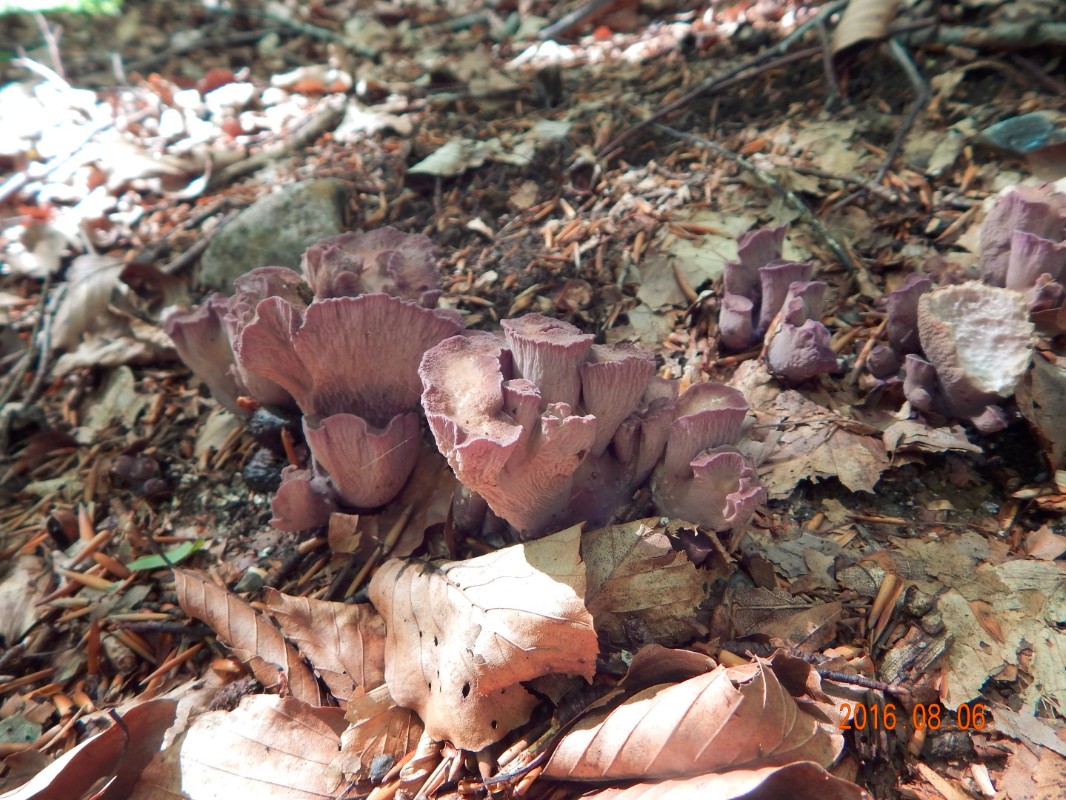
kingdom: Fungi
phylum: Basidiomycota
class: Agaricomycetes
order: Gomphales
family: Gomphaceae
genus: Gomphus
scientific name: Gomphus clavatus
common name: køllekantarel
